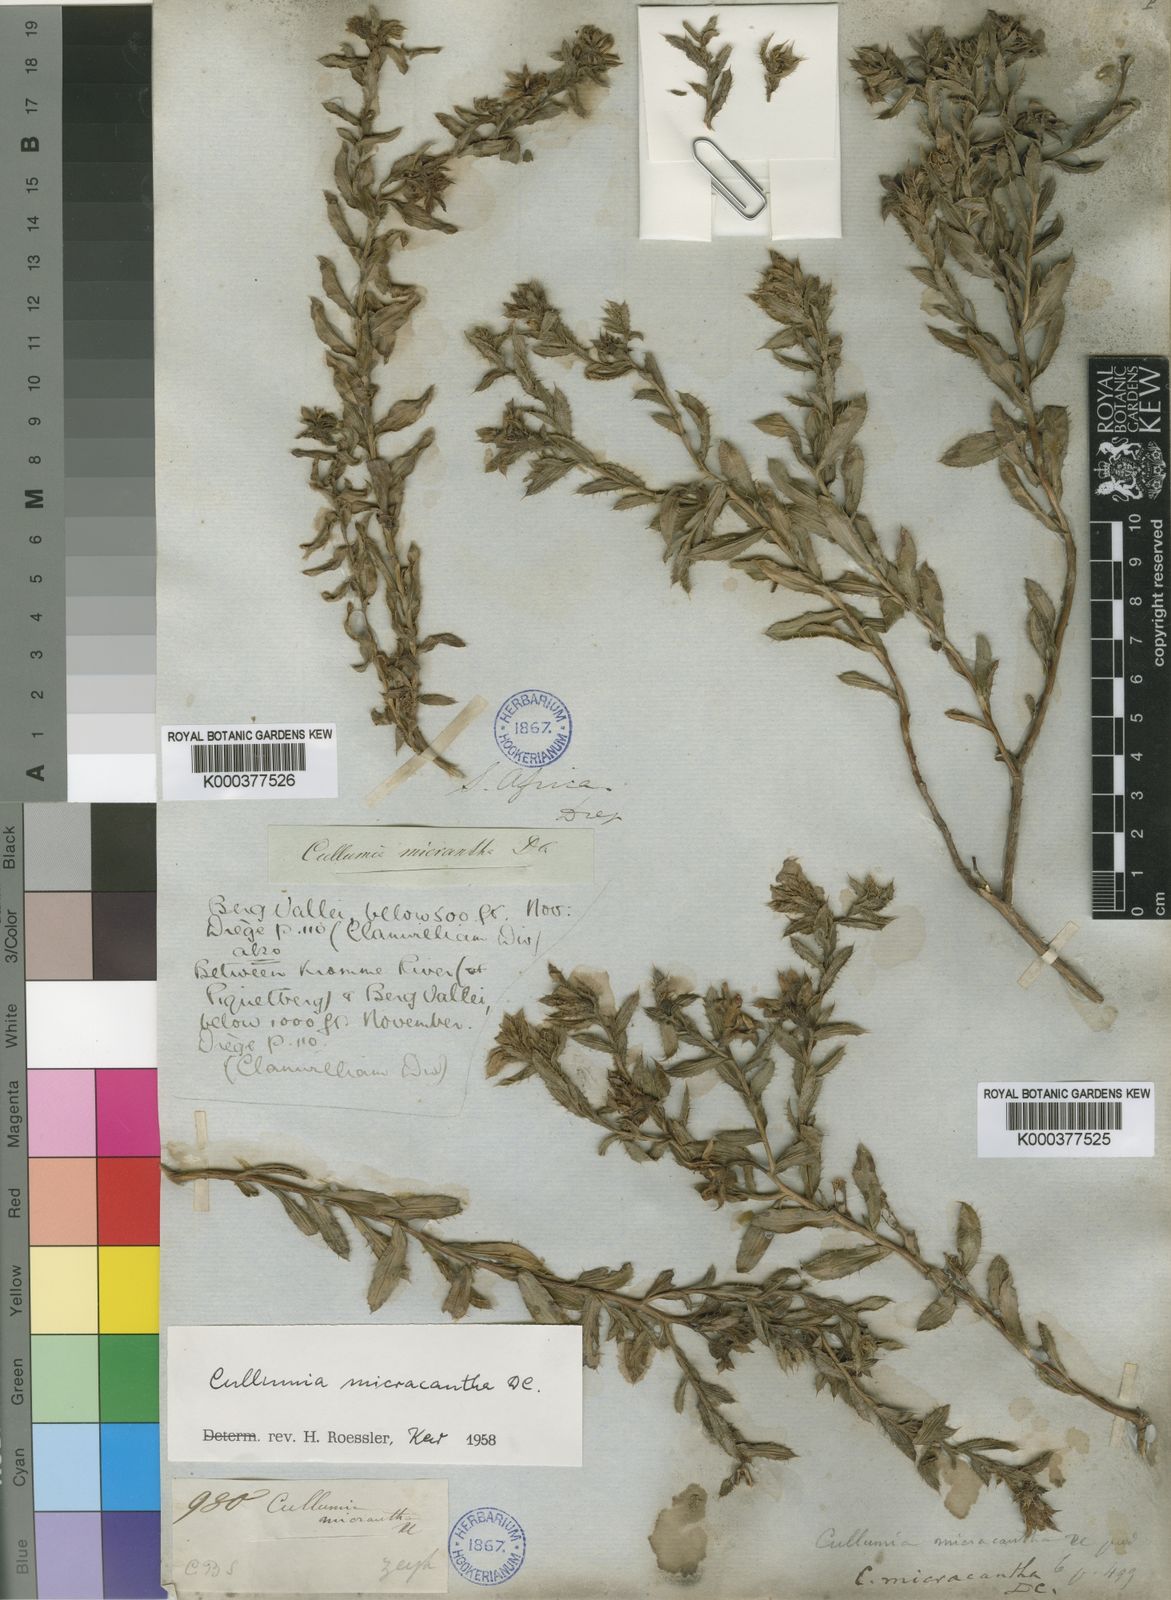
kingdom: Plantae
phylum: Tracheophyta
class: Magnoliopsida
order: Asterales
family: Asteraceae
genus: Cullumia
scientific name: Cullumia micracantha
